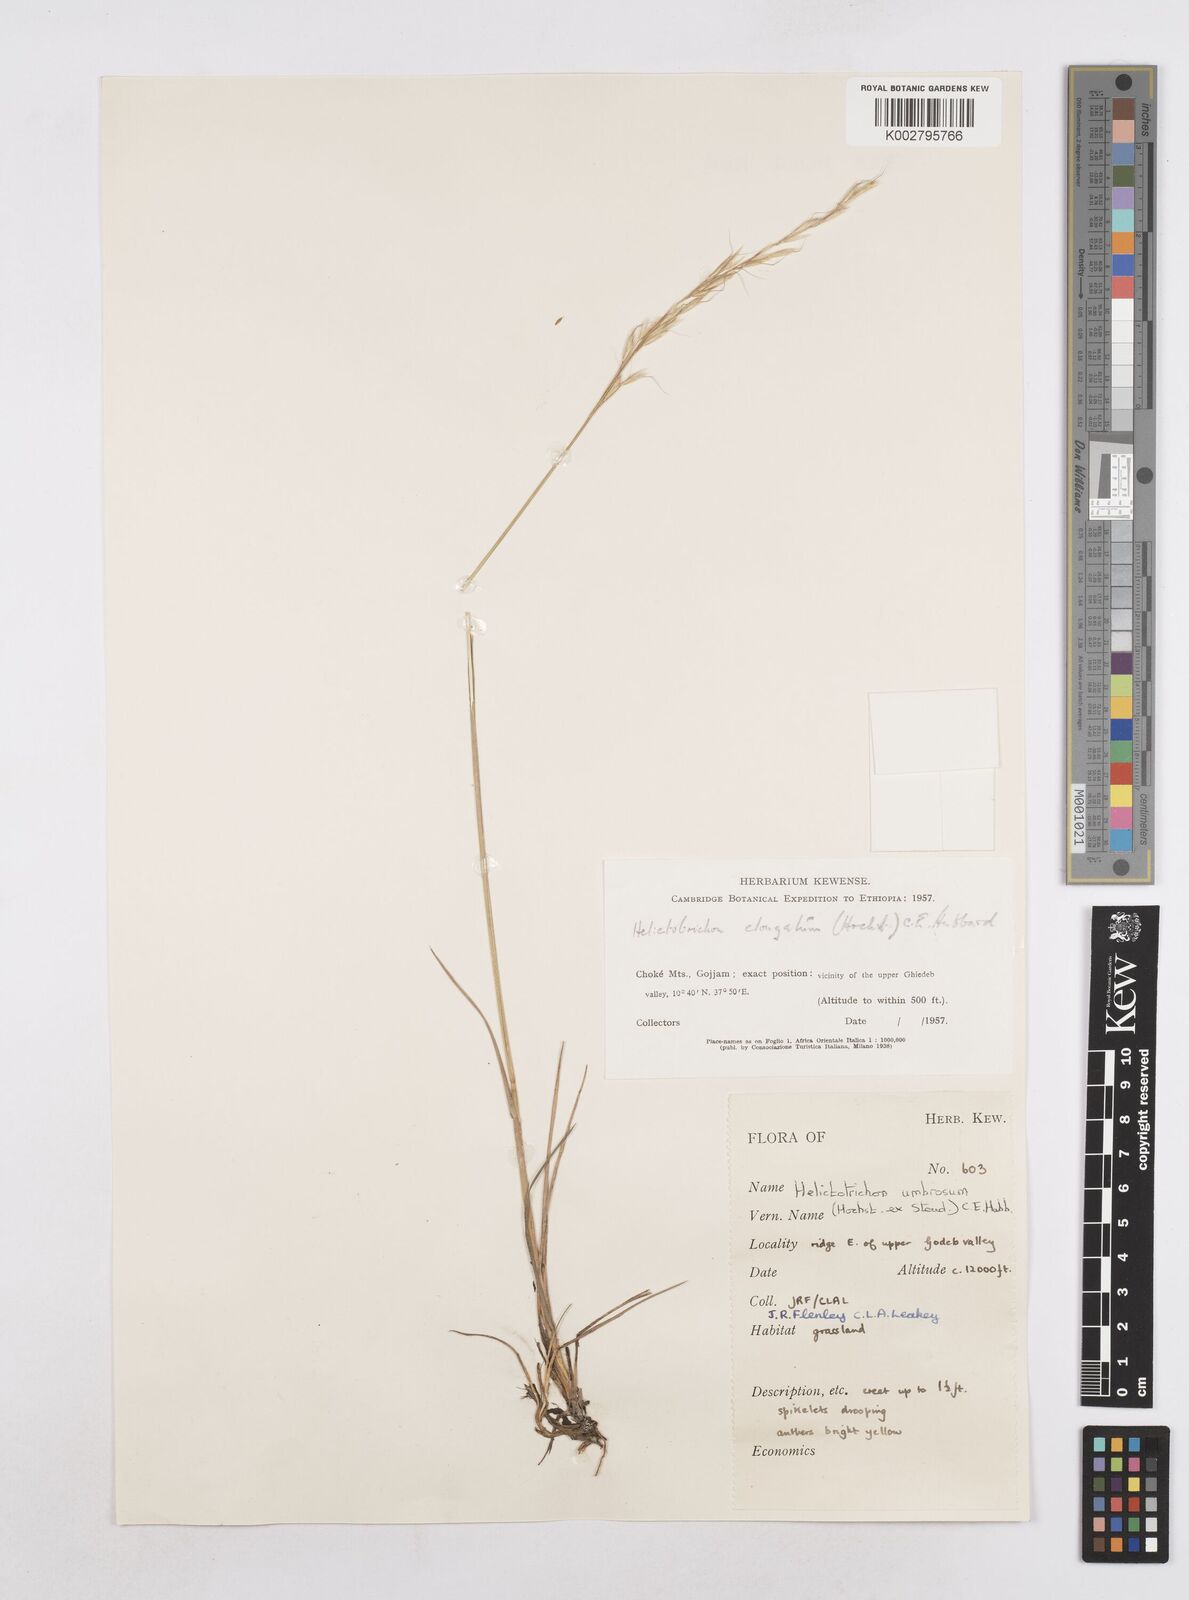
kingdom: Plantae
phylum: Tracheophyta
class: Liliopsida
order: Poales
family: Poaceae
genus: Trisetopsis
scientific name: Trisetopsis umbrosa
